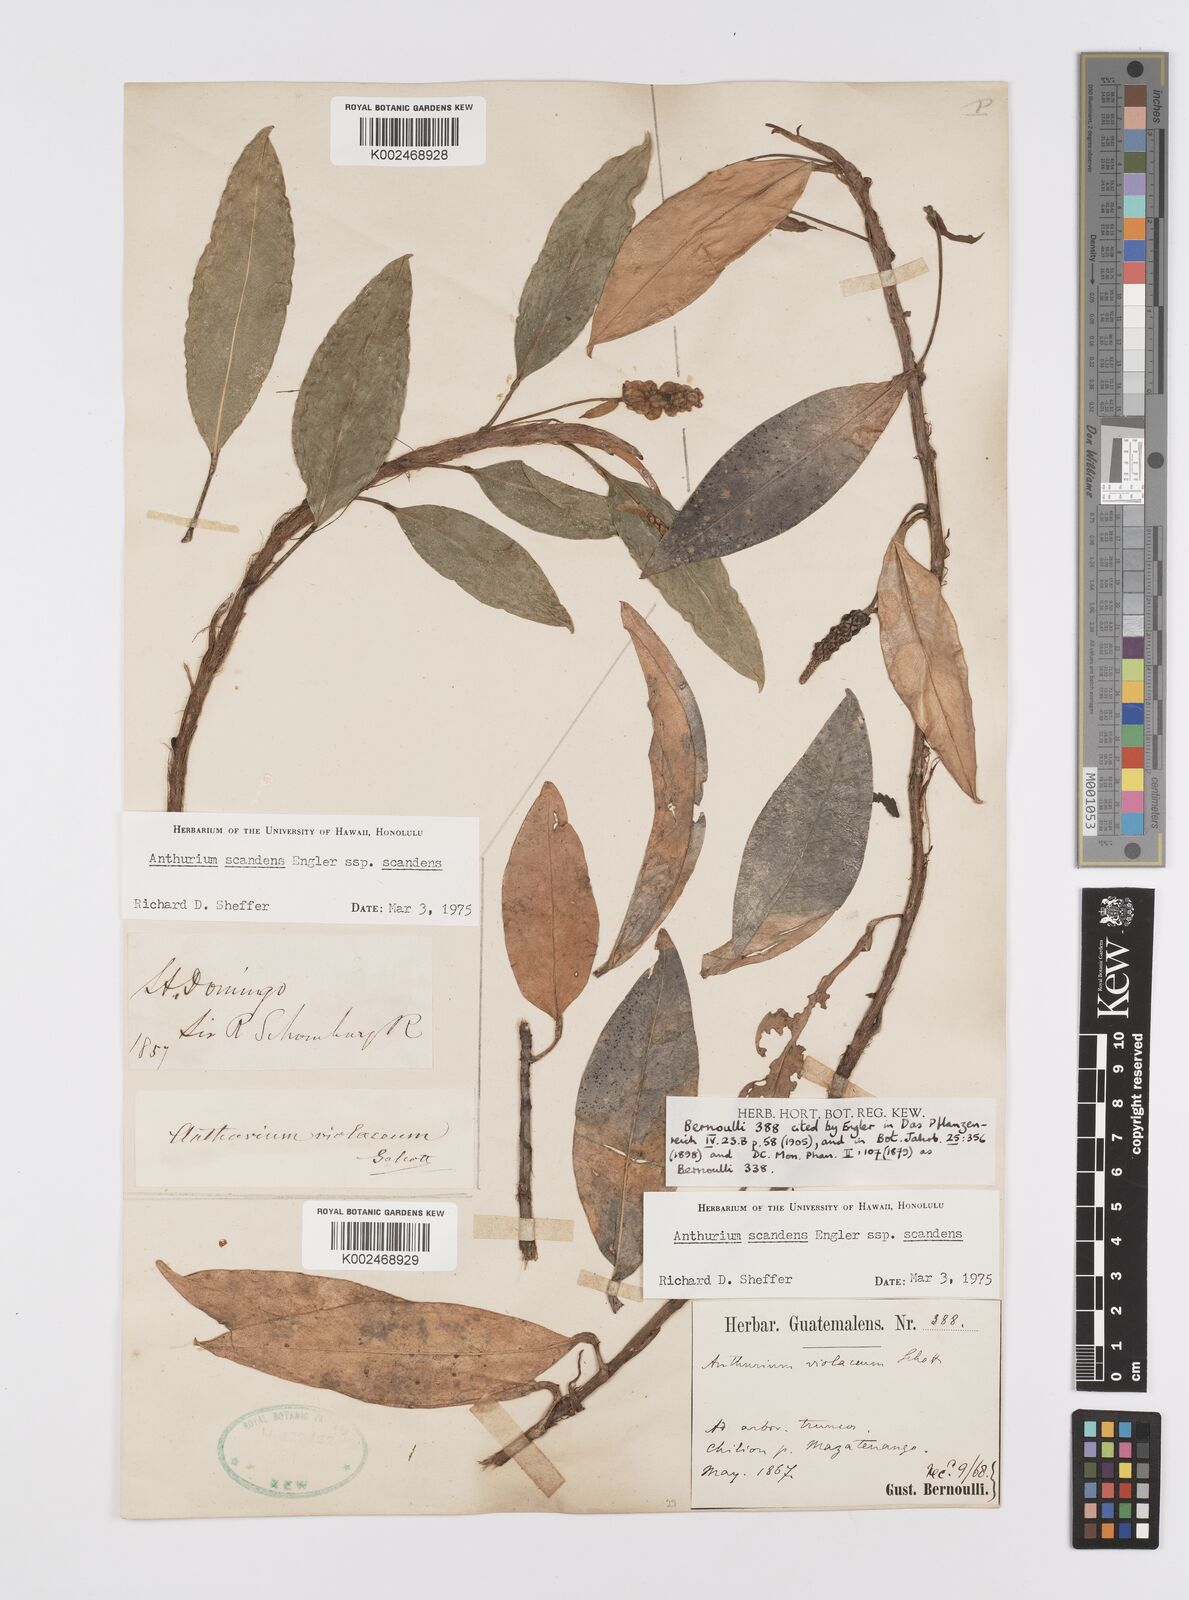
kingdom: Plantae
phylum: Tracheophyta
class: Liliopsida
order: Alismatales
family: Araceae
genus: Anthurium
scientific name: Anthurium scandens
